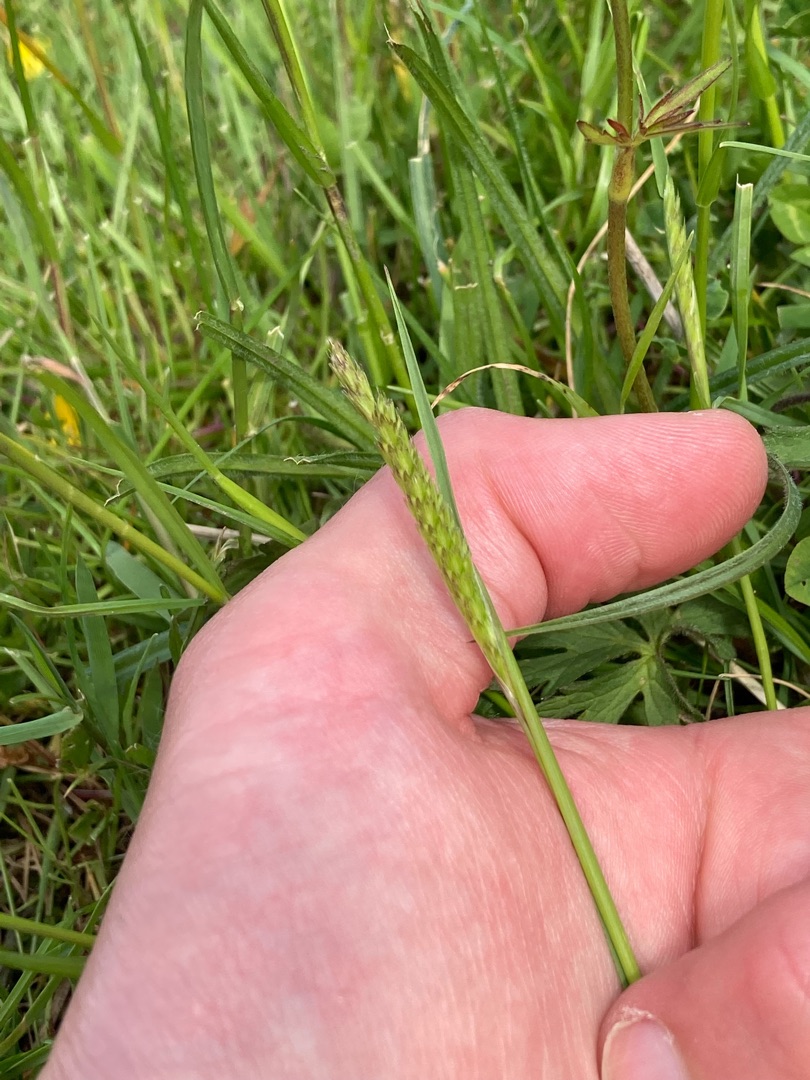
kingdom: Plantae
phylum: Tracheophyta
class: Liliopsida
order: Poales
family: Poaceae
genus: Cynosurus
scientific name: Cynosurus cristatus
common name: Kamgræs
